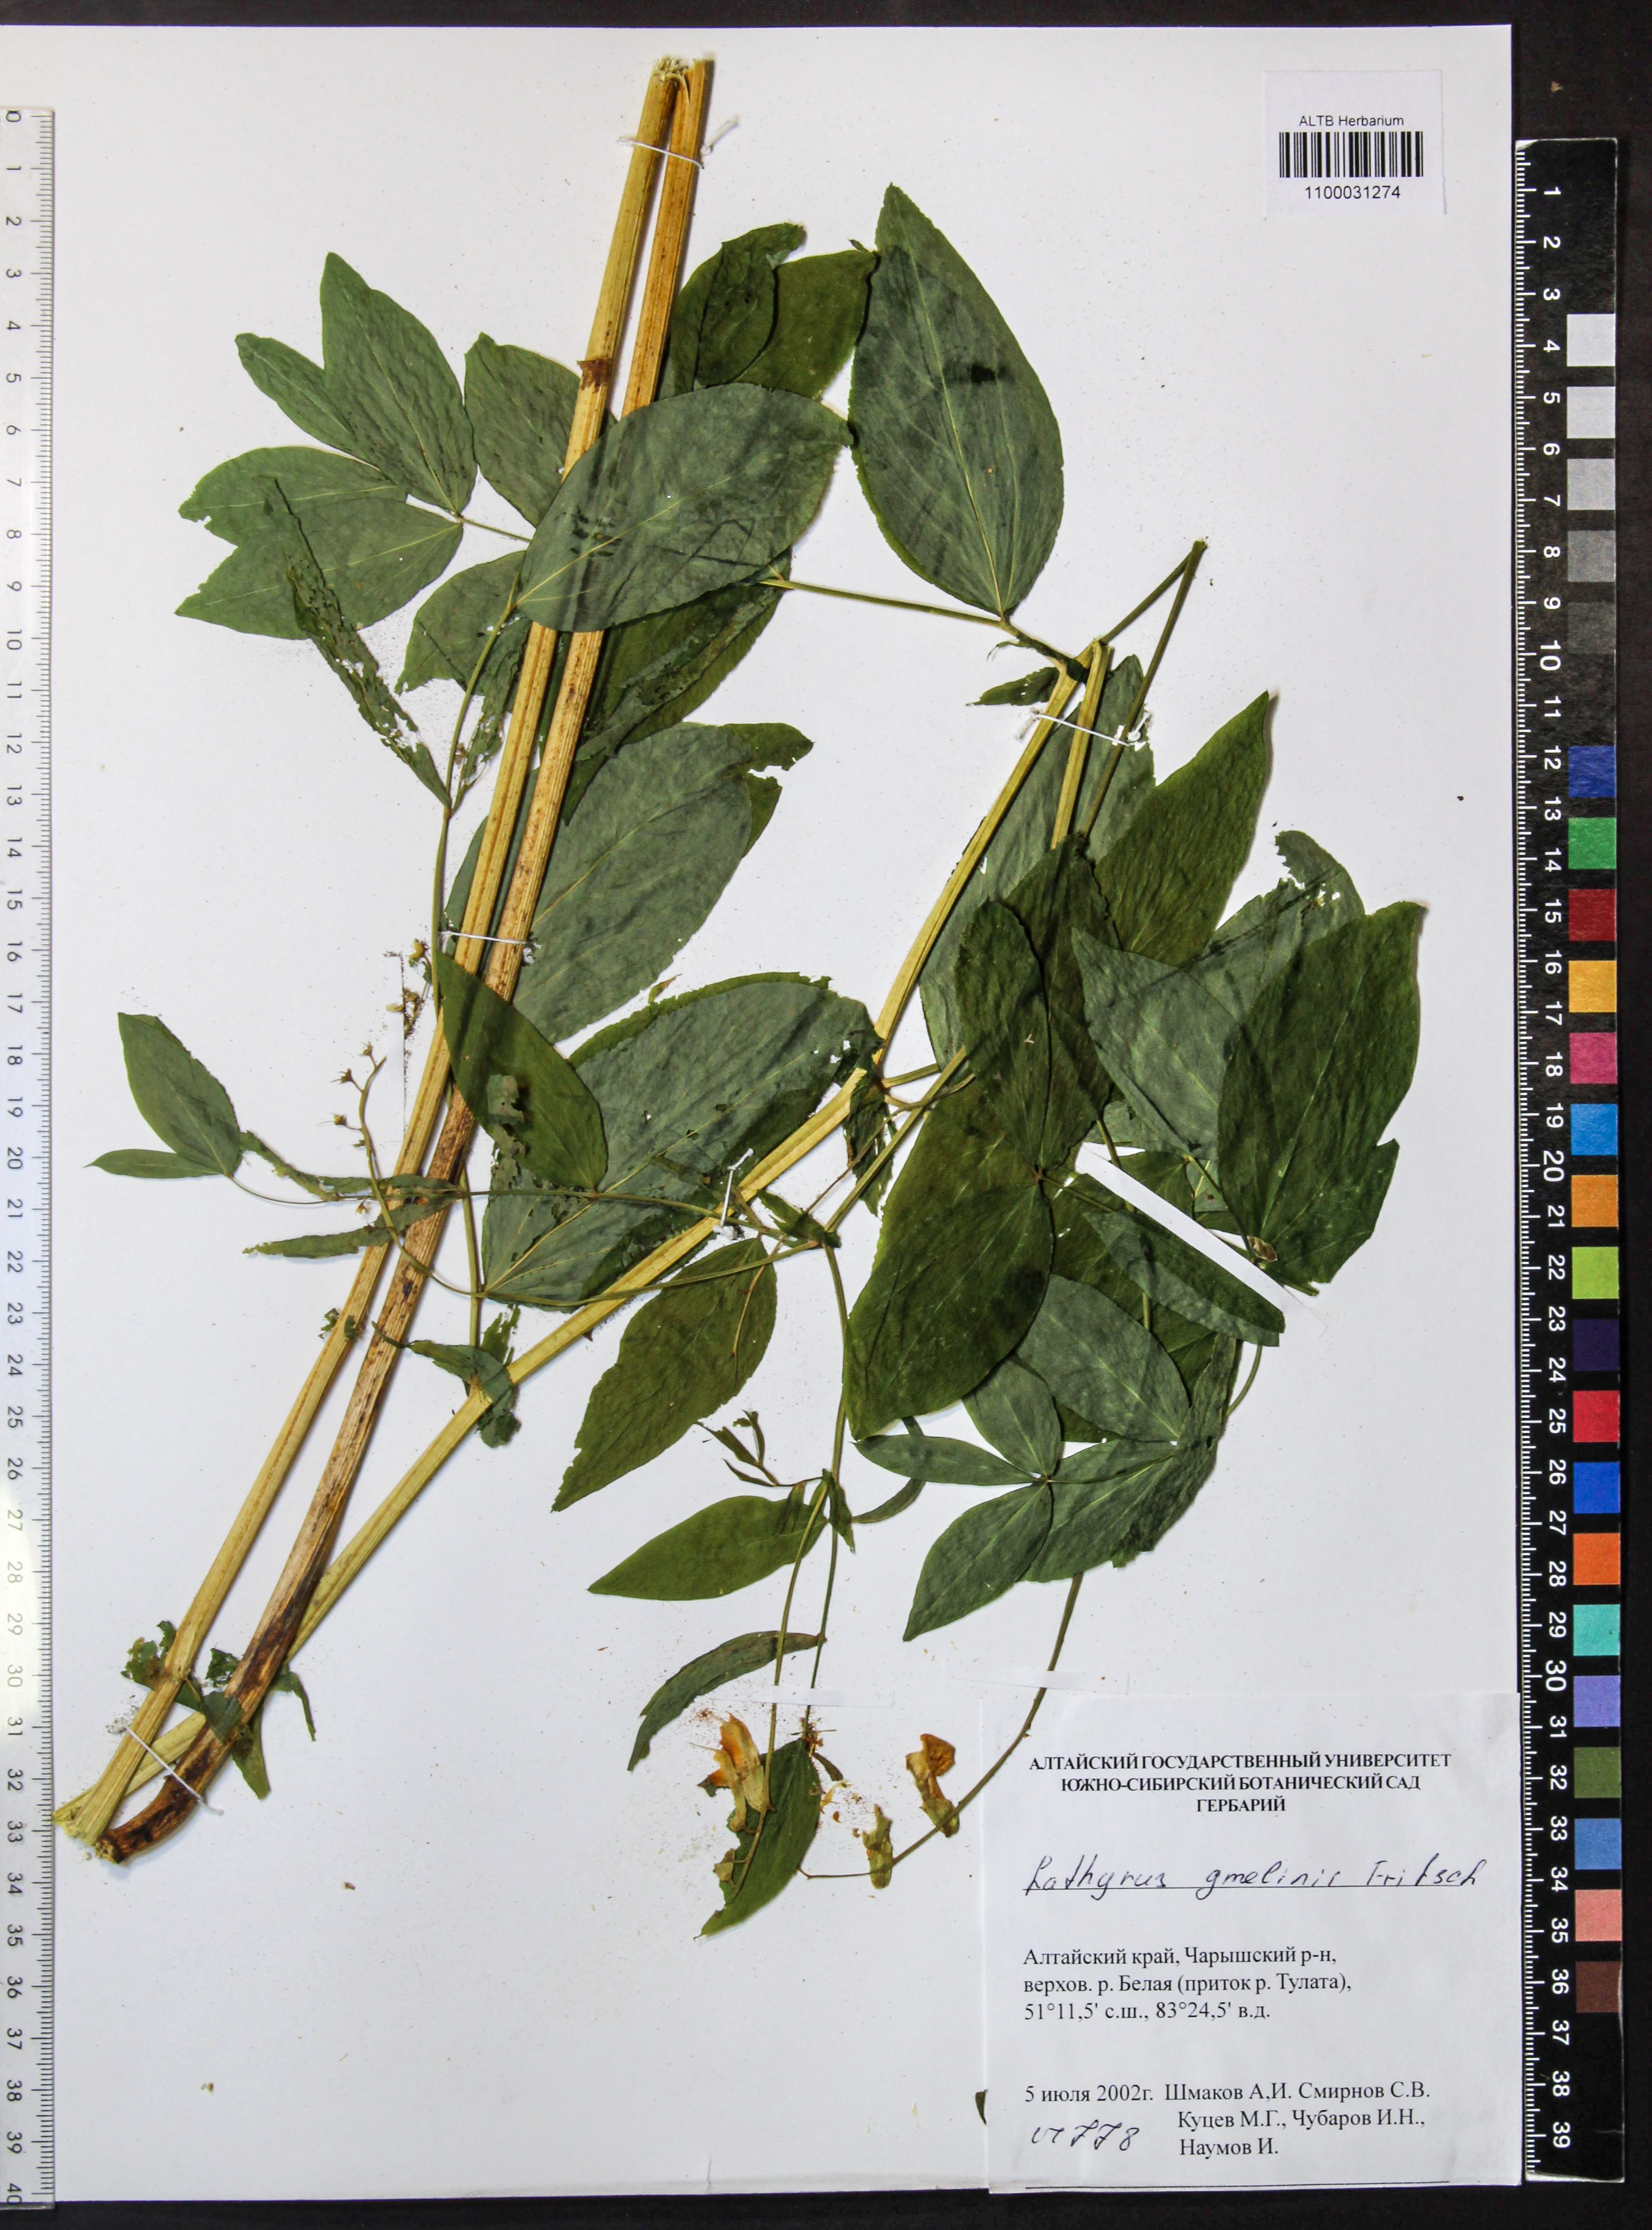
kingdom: Plantae
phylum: Tracheophyta
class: Magnoliopsida
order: Fabales
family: Fabaceae
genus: Lathyrus
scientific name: Lathyrus gmelinii
